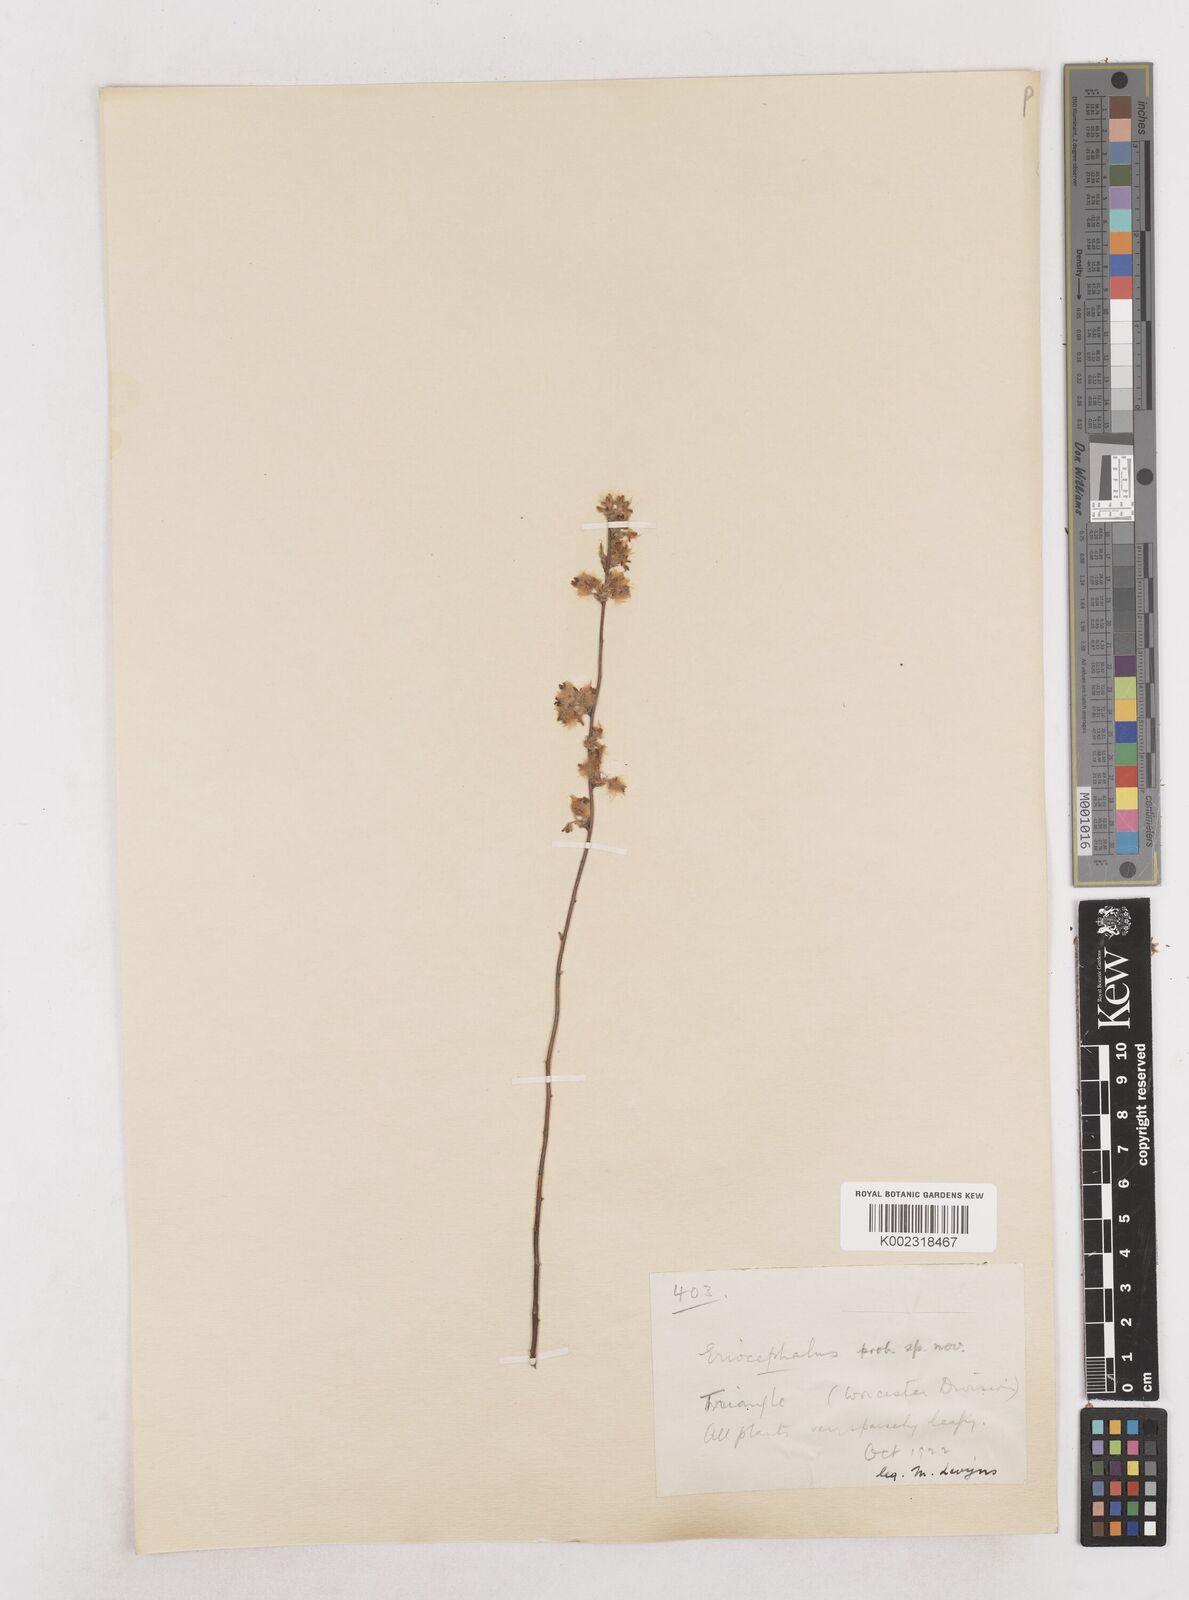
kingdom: Plantae
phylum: Tracheophyta
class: Magnoliopsida
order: Asterales
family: Asteraceae
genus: Eriocephalus
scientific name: Eriocephalus
